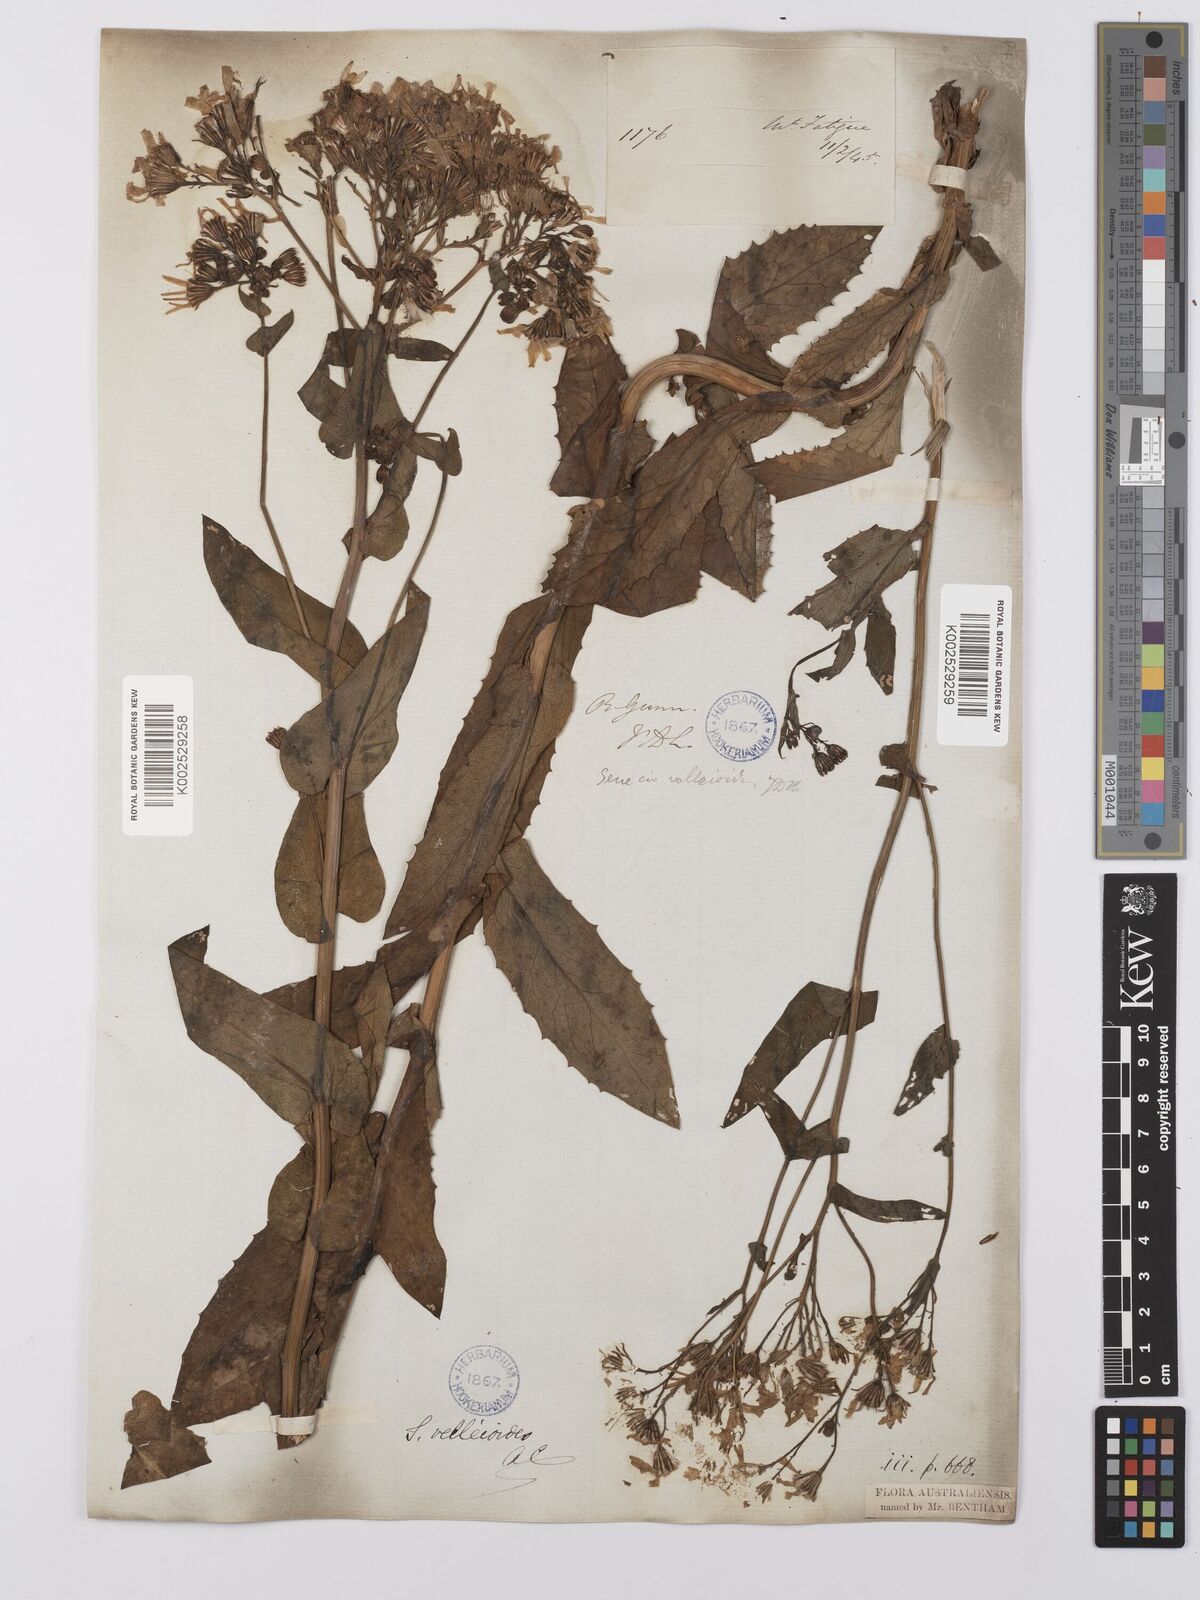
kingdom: Plantae
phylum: Tracheophyta
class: Magnoliopsida
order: Asterales
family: Asteraceae
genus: Lordhowea
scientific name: Lordhowea velleioides
